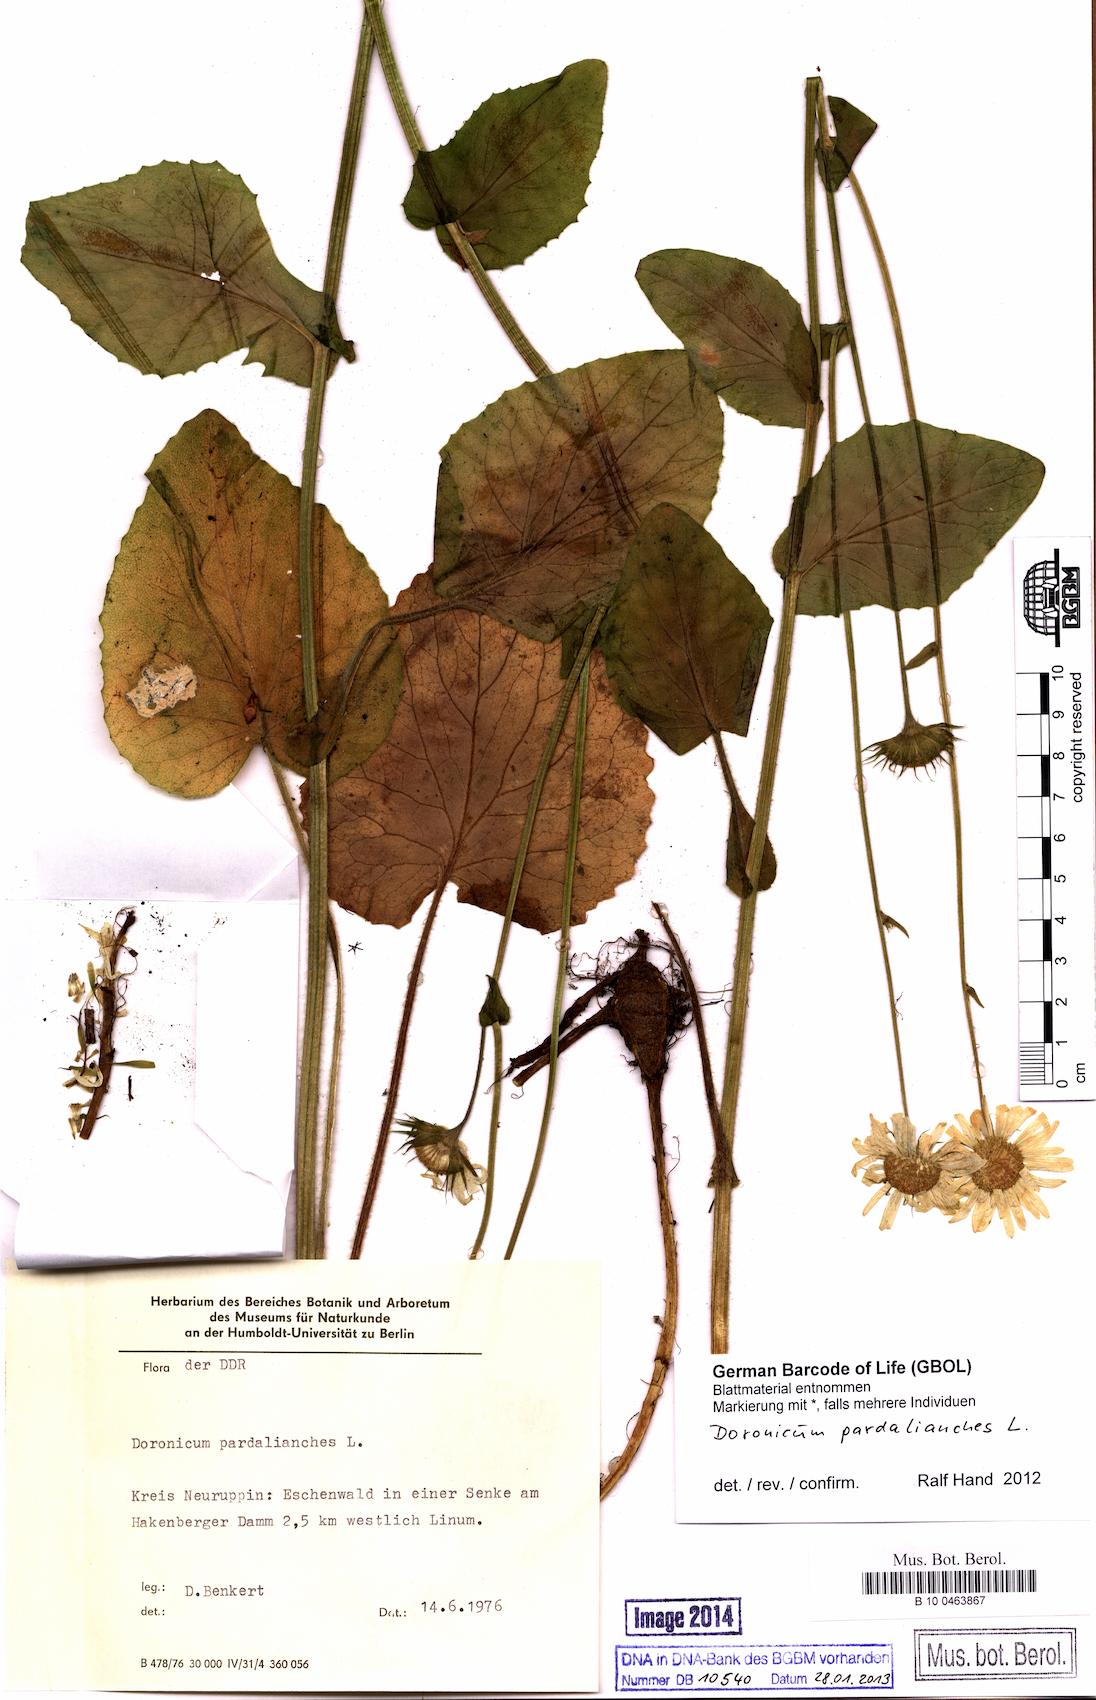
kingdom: Plantae
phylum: Tracheophyta
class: Magnoliopsida
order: Asterales
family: Asteraceae
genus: Doronicum
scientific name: Doronicum pardalianches
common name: Leopard's-bane
